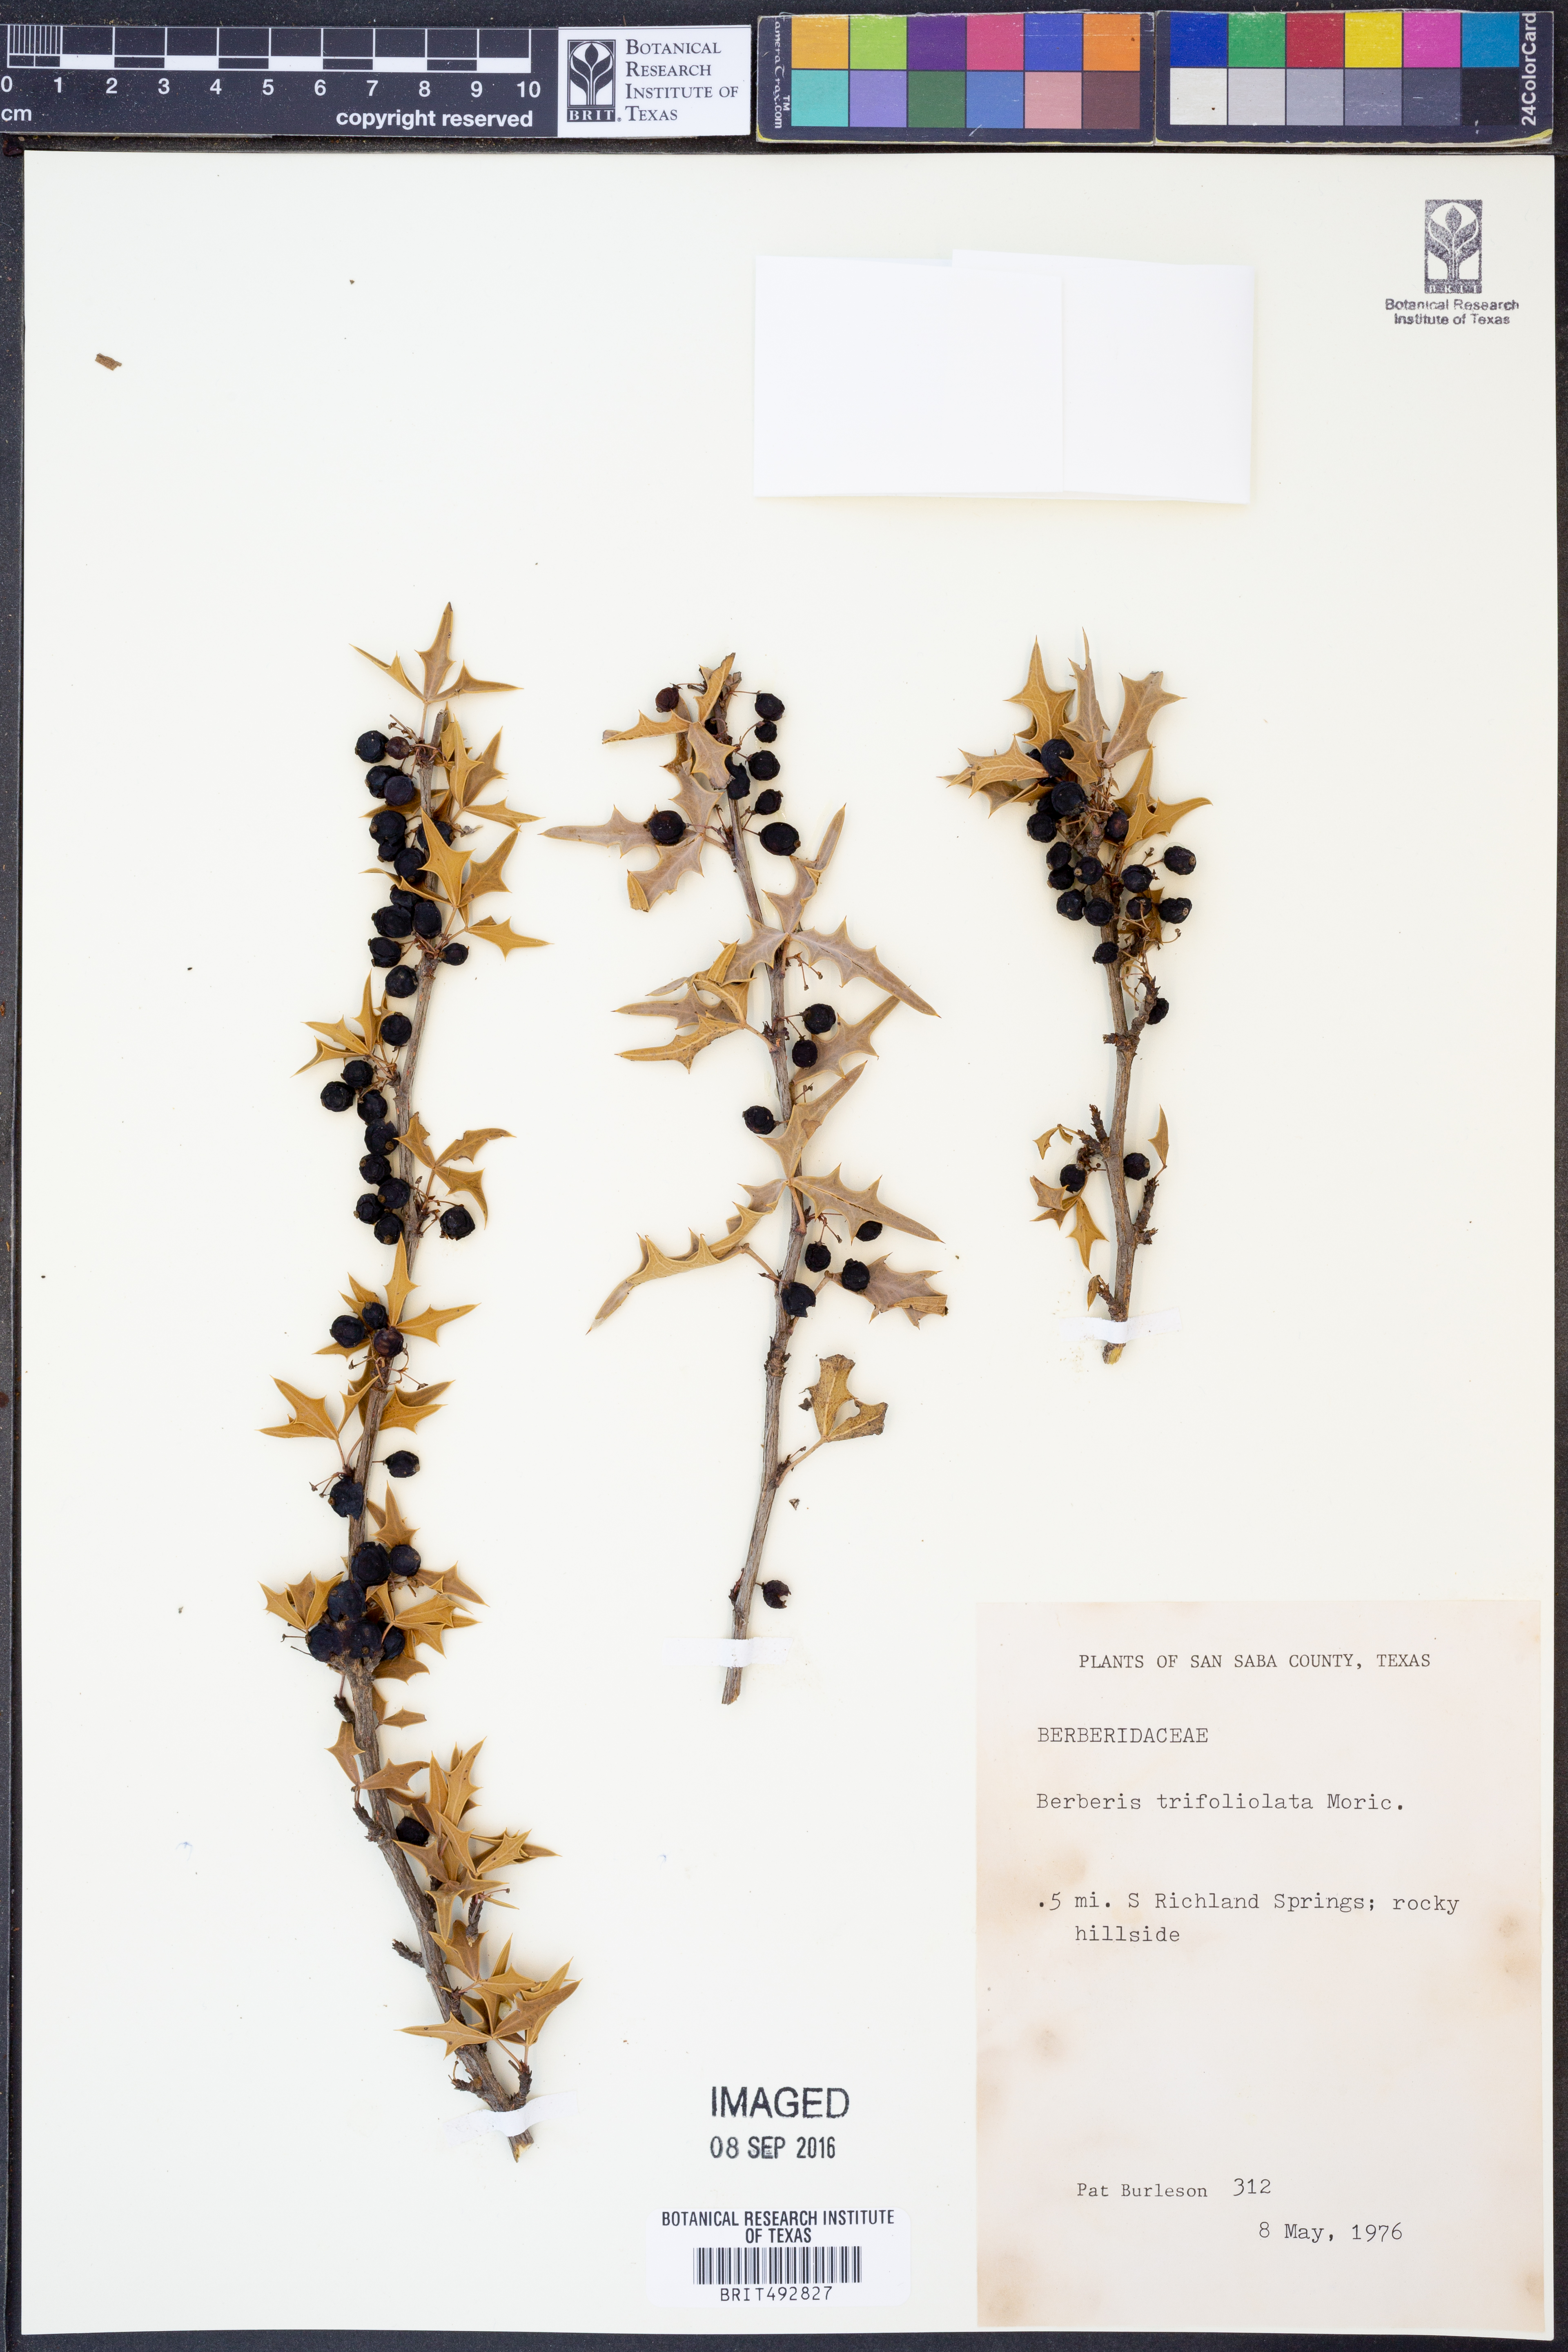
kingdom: Plantae
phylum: Tracheophyta
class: Magnoliopsida
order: Ranunculales
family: Berberidaceae
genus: Alloberberis
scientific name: Alloberberis trifoliolata
